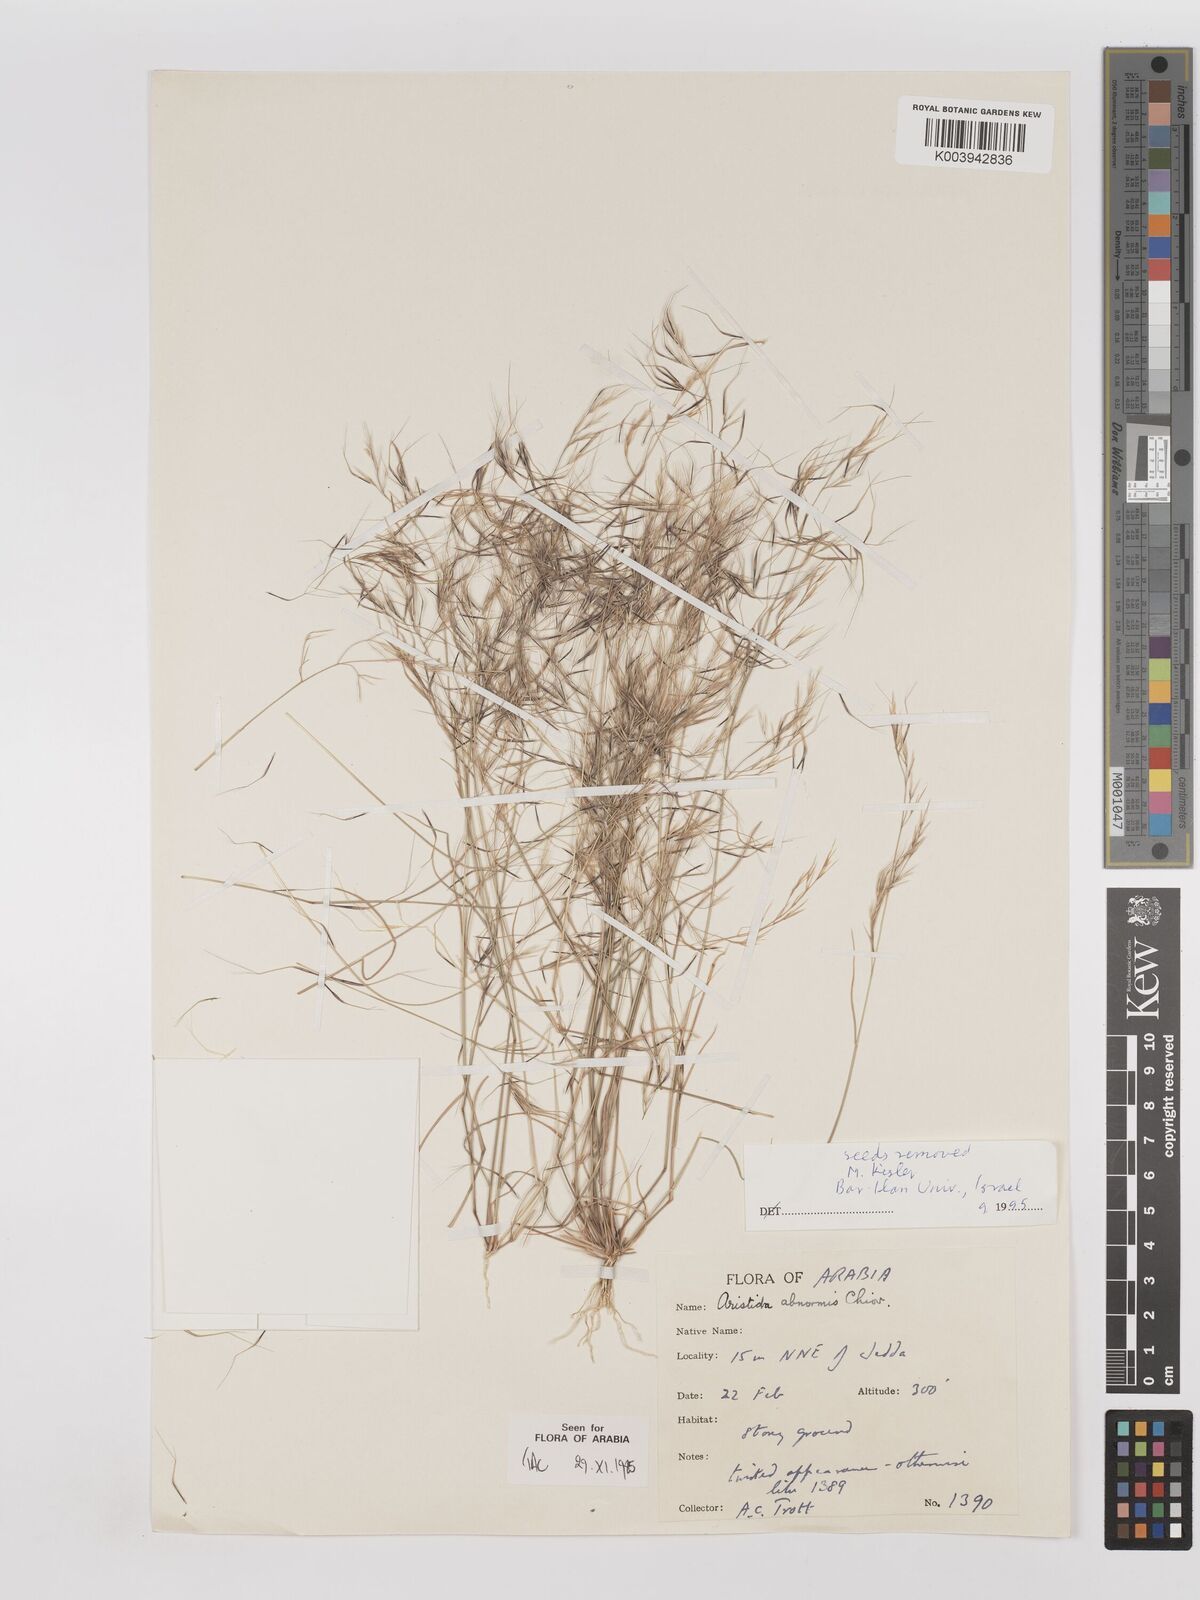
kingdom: Plantae
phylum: Tracheophyta
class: Liliopsida
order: Poales
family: Poaceae
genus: Aristida
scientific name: Aristida abnormis
